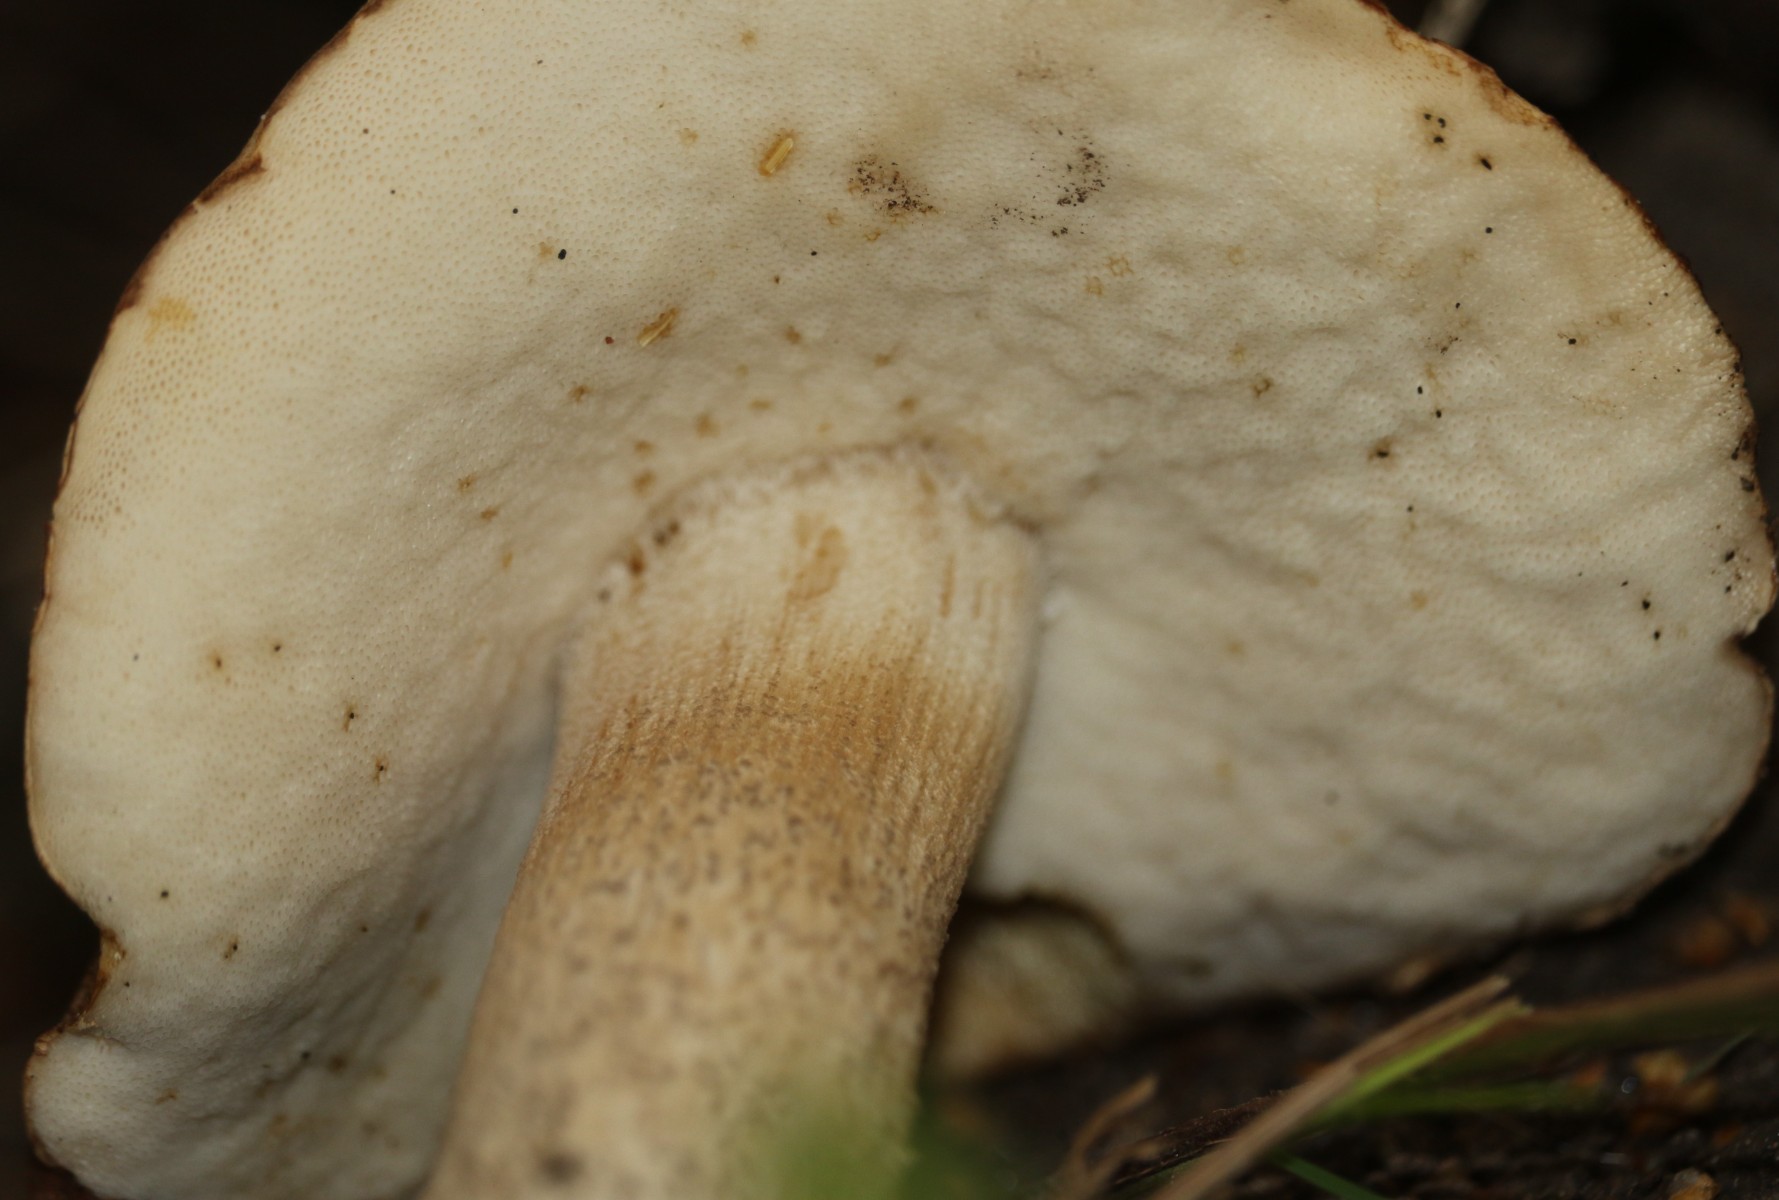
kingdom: Fungi
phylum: Basidiomycota
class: Agaricomycetes
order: Boletales
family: Boletaceae
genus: Leccinum
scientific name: Leccinum
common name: skælrørhat
